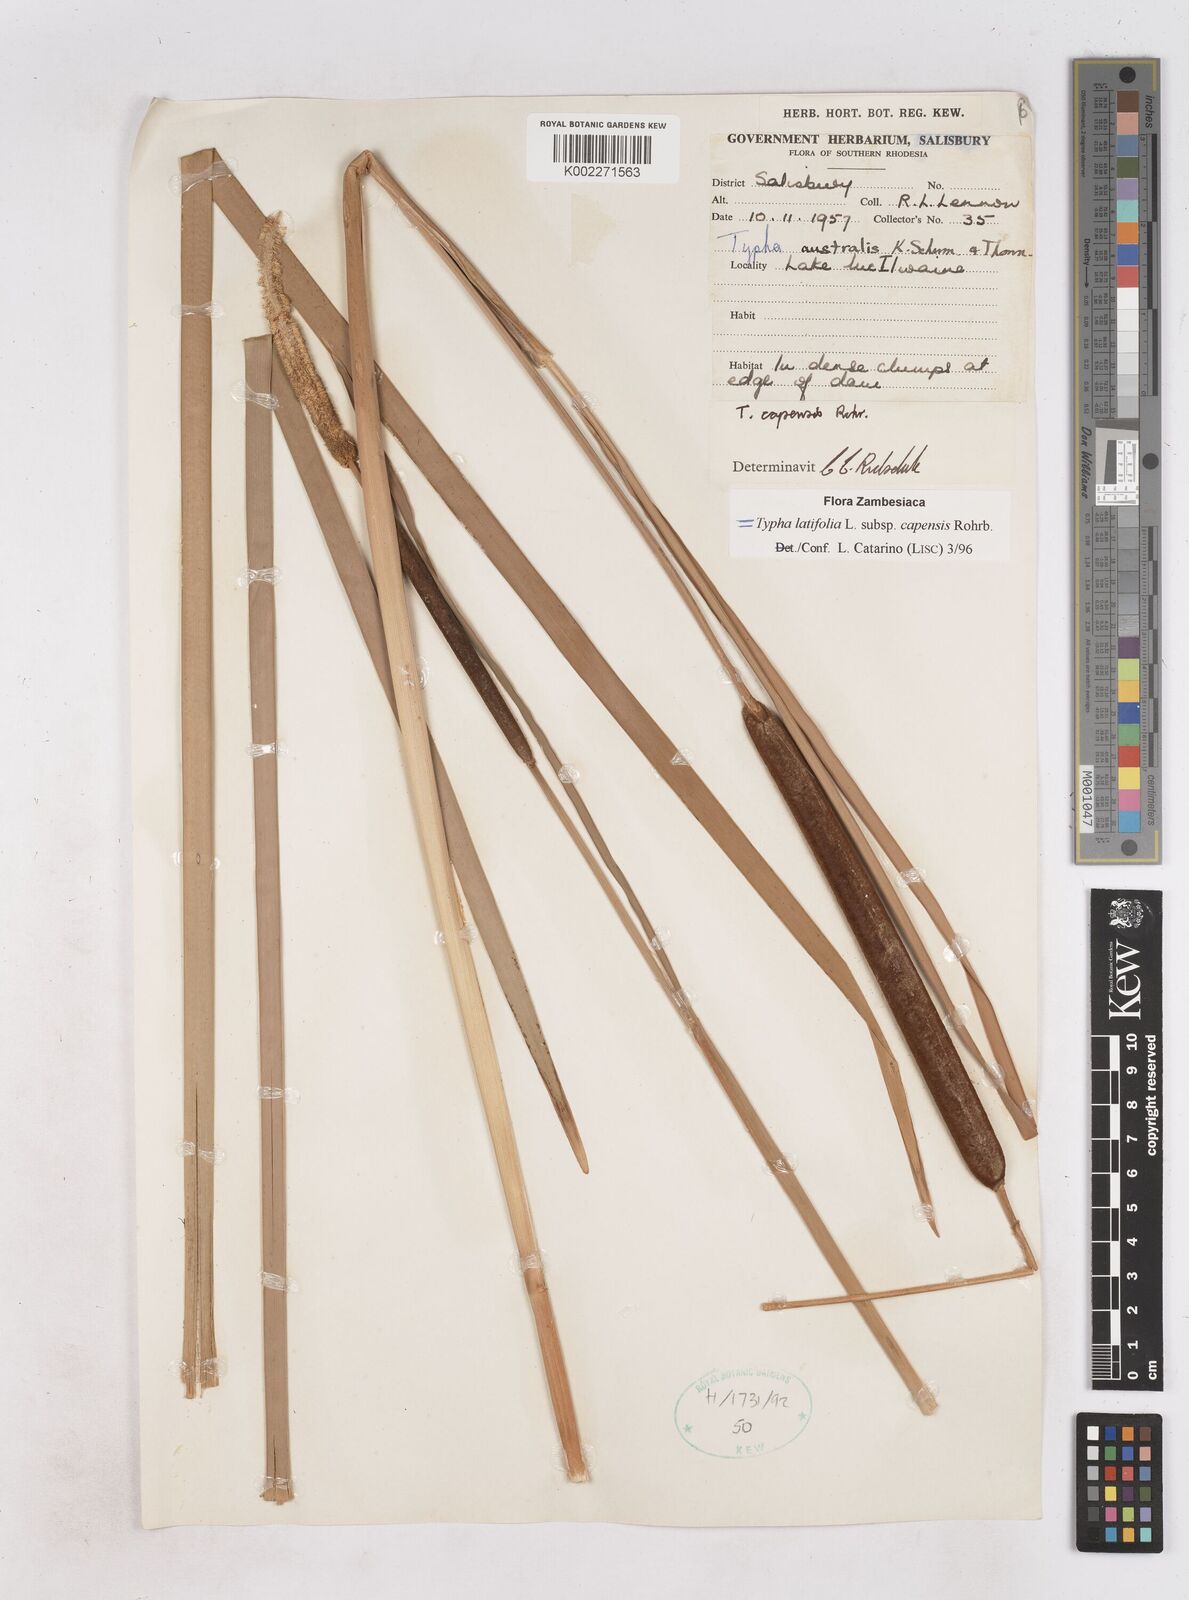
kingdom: Plantae
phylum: Tracheophyta
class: Liliopsida
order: Poales
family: Typhaceae
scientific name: Typhaceae
